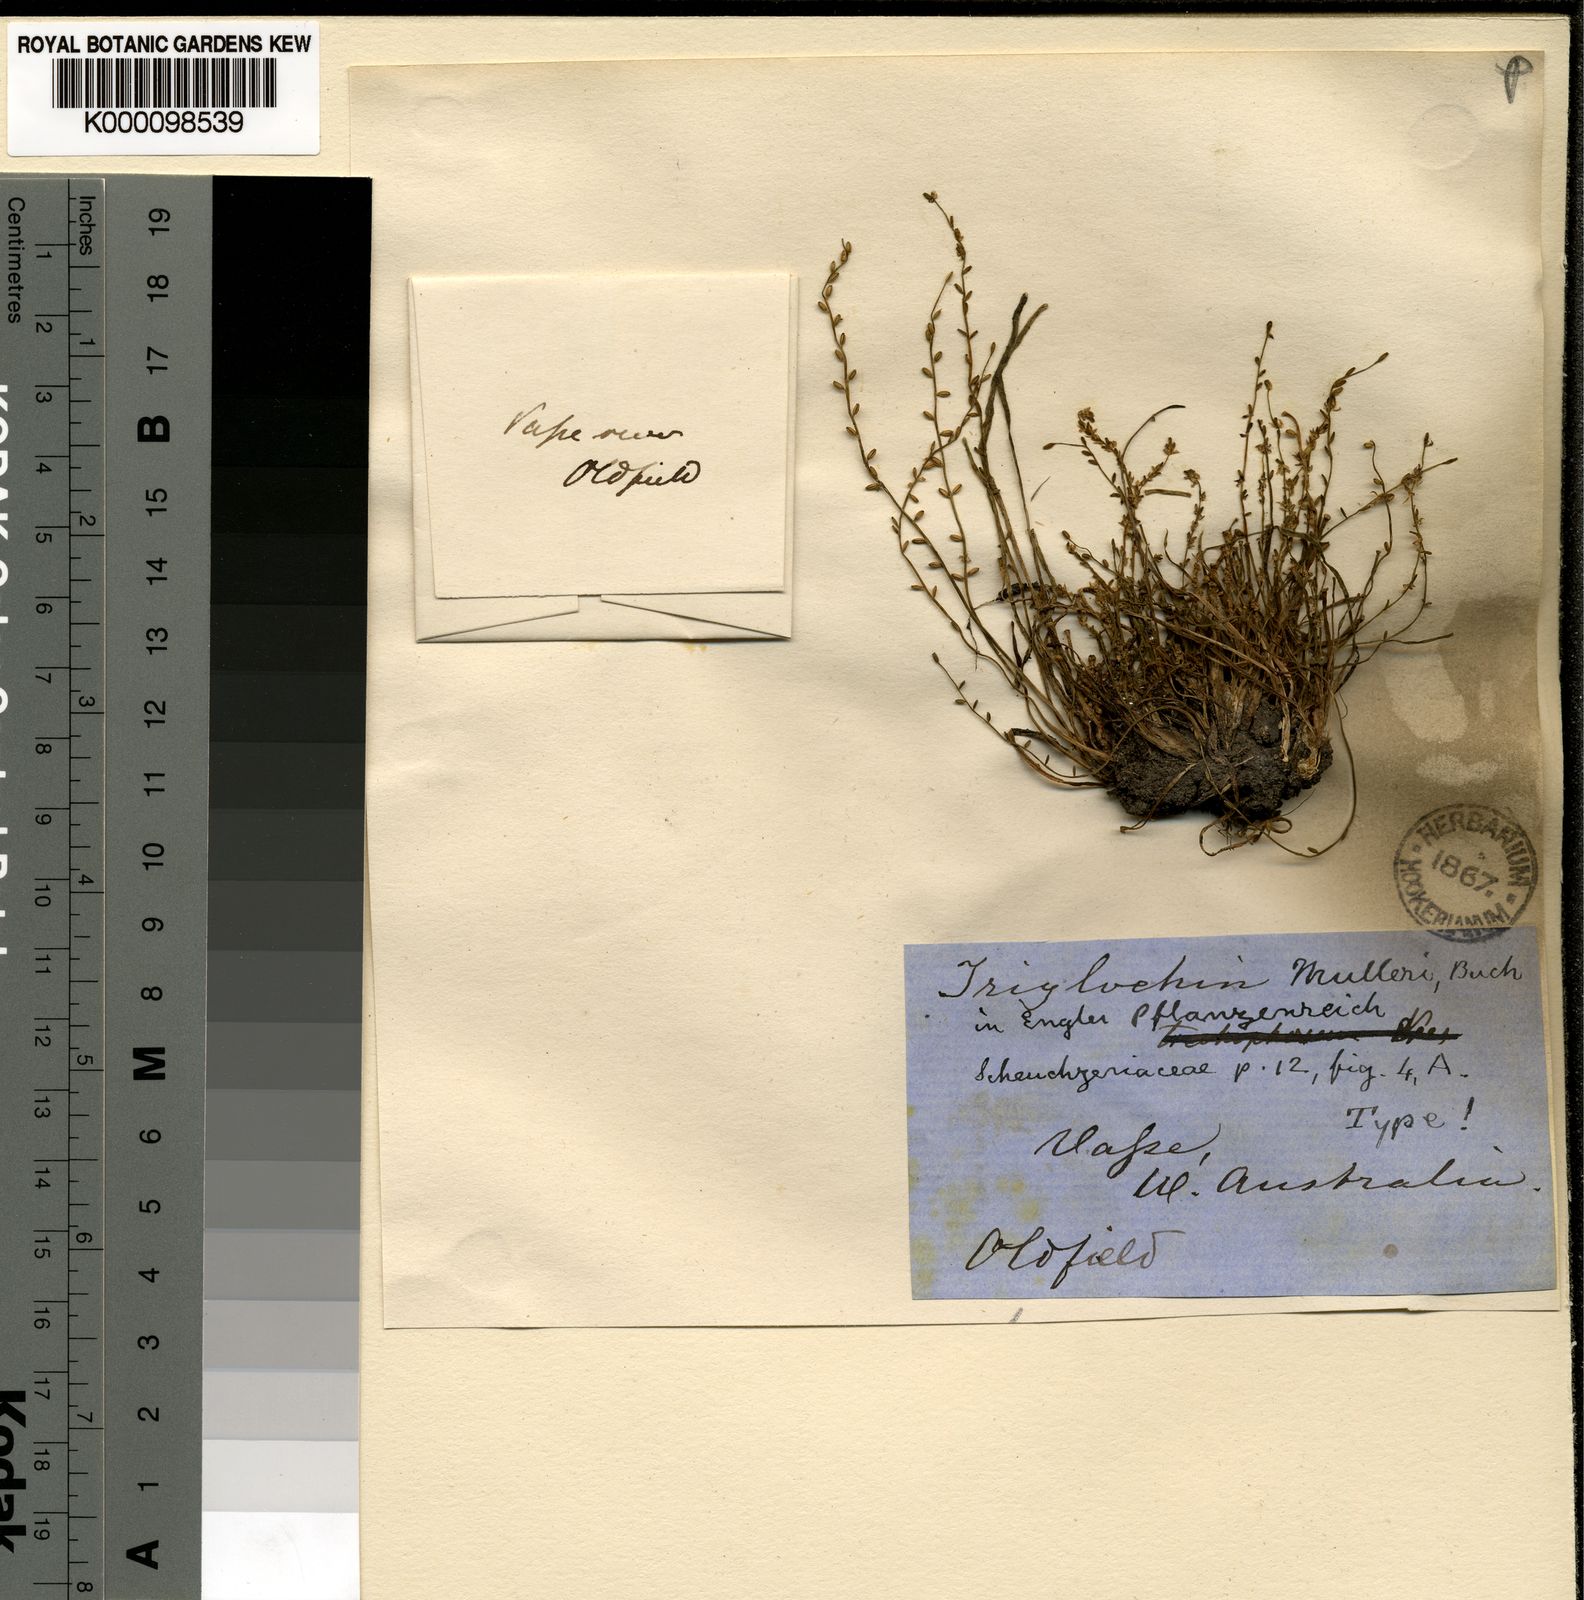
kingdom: Plantae
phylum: Tracheophyta
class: Liliopsida
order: Alismatales
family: Juncaginaceae
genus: Triglochin
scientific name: Triglochin muelleri
